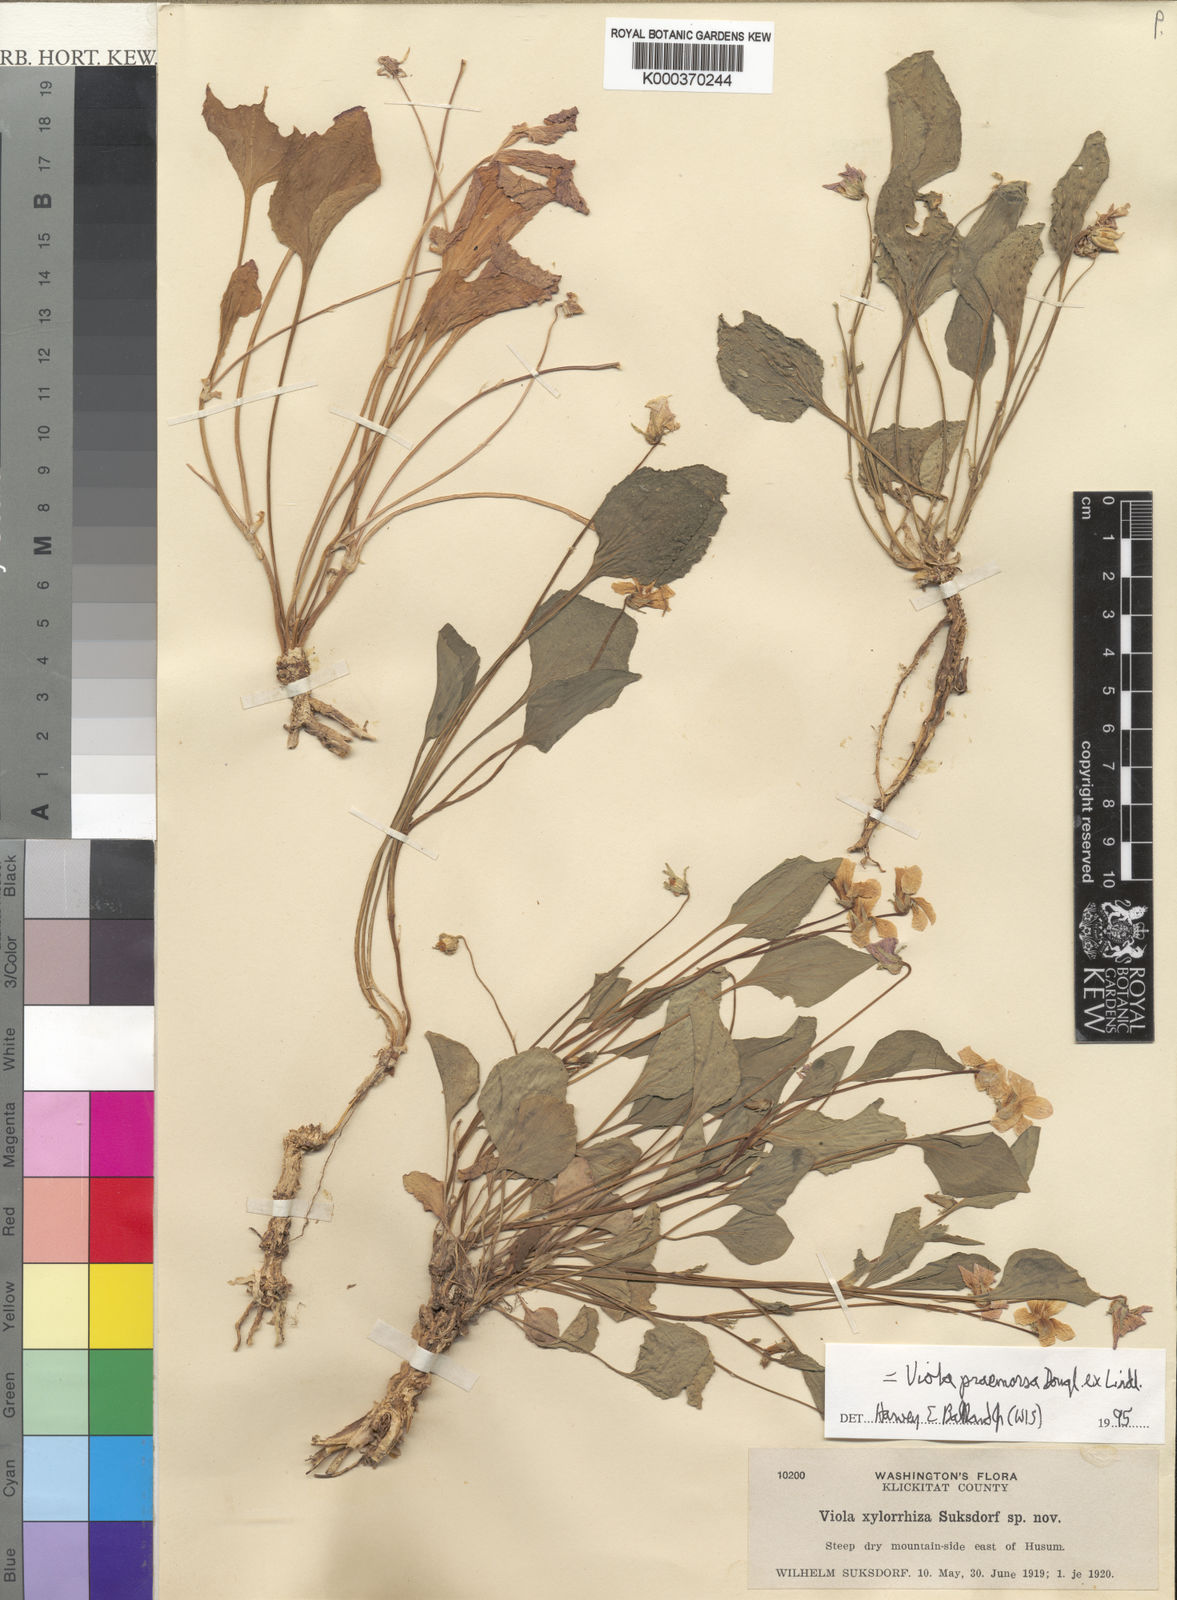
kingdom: Plantae
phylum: Tracheophyta
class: Magnoliopsida
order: Malpighiales
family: Violaceae
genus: Viola
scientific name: Viola vallicola
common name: Valley violet
